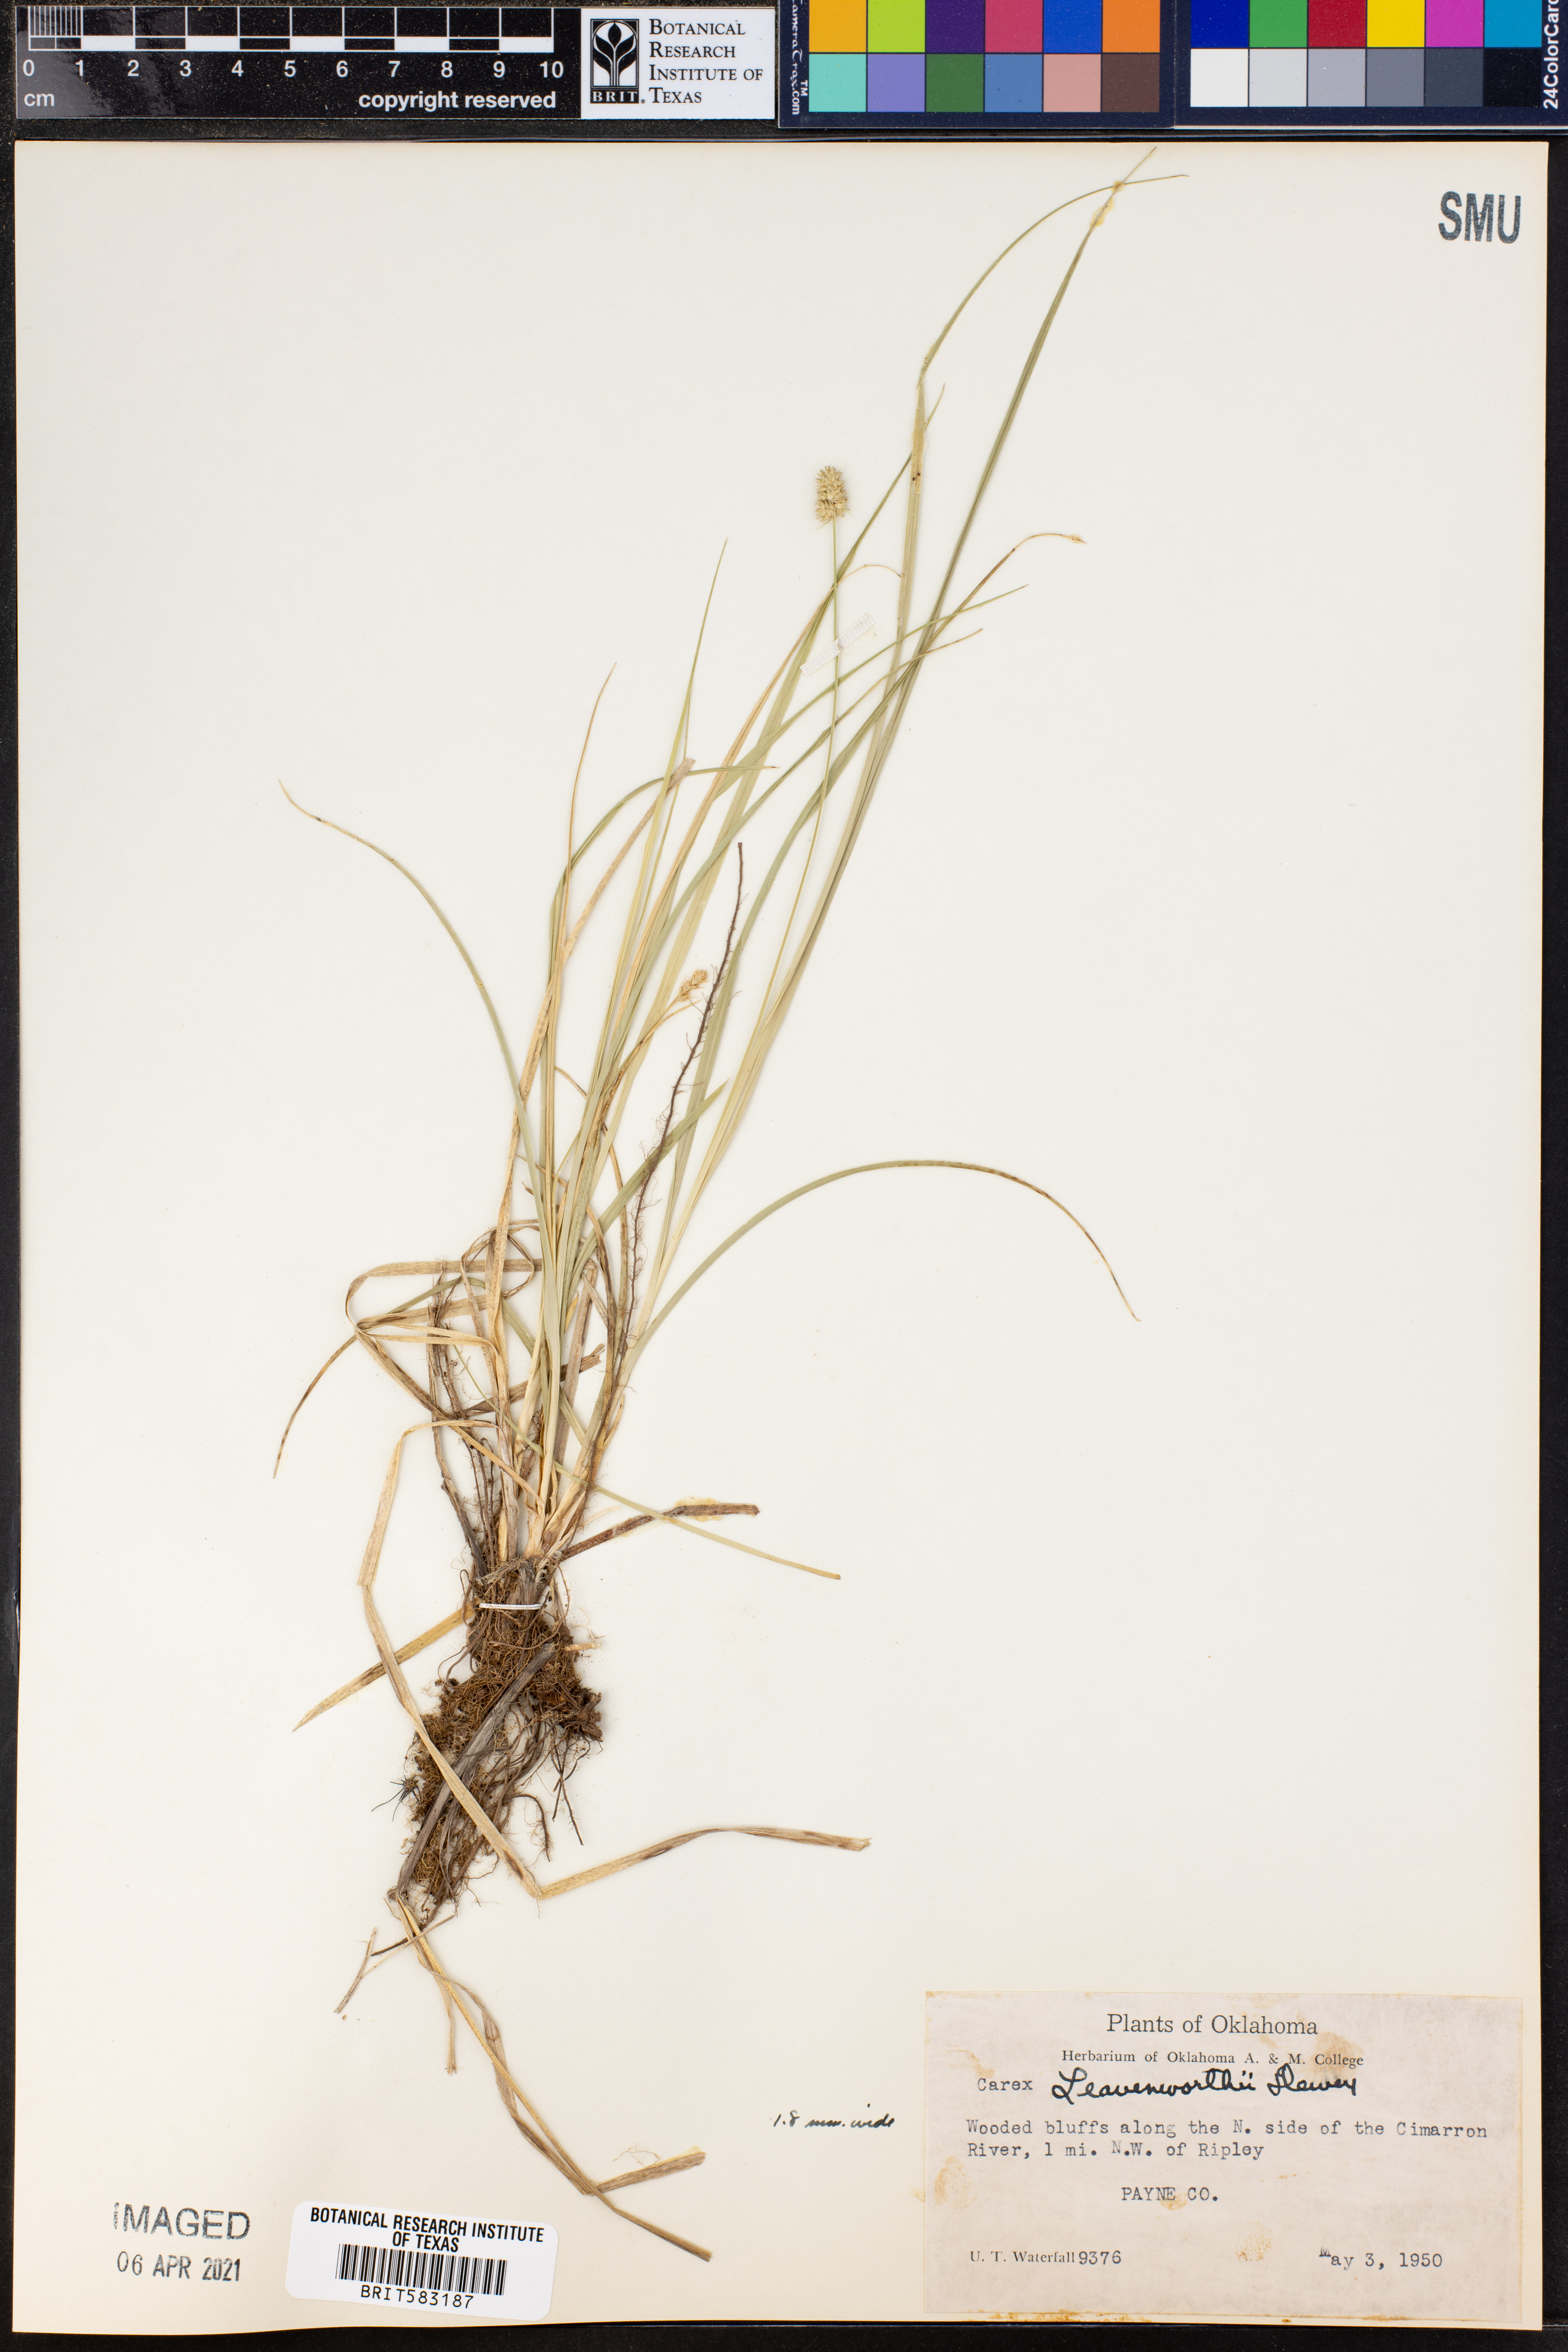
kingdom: Plantae
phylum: Tracheophyta
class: Liliopsida
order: Poales
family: Cyperaceae
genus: Carex
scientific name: Carex leavenworthii
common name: Leavenworth's bracted sedge
